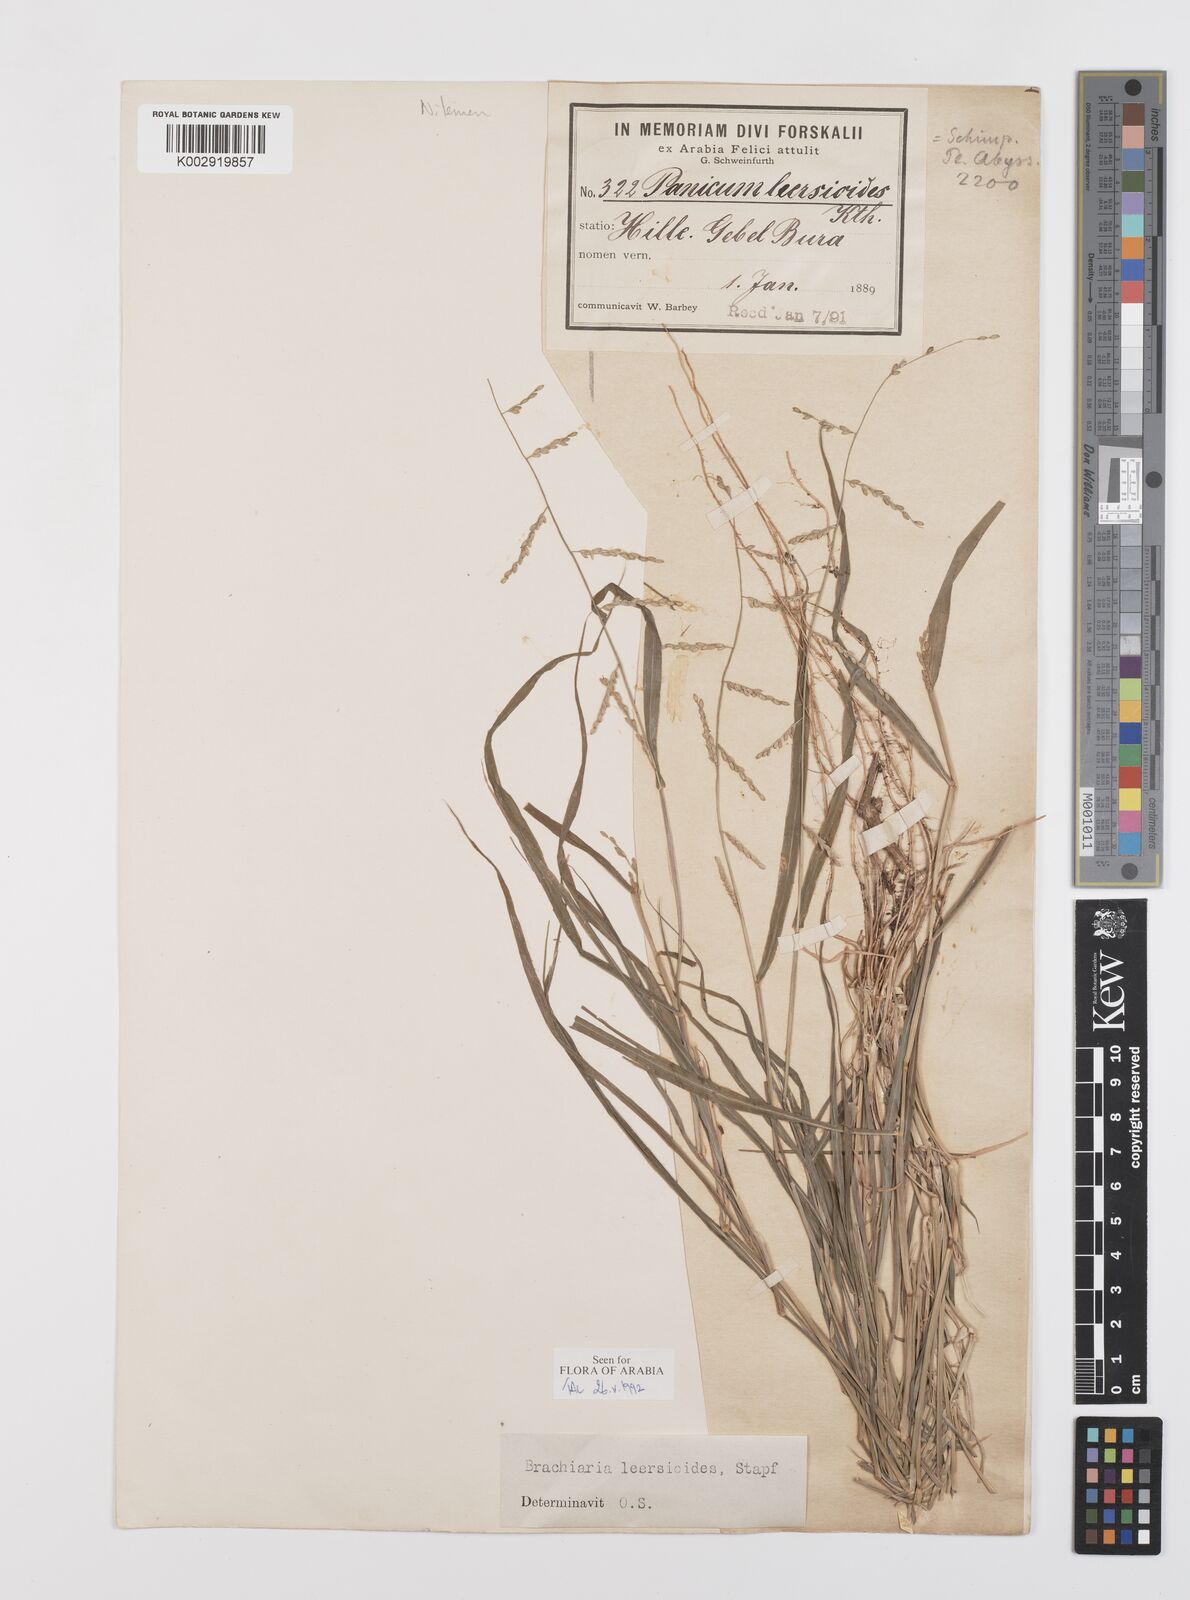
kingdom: Plantae
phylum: Tracheophyta
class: Liliopsida
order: Poales
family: Poaceae
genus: Urochloa
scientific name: Urochloa leersioides
